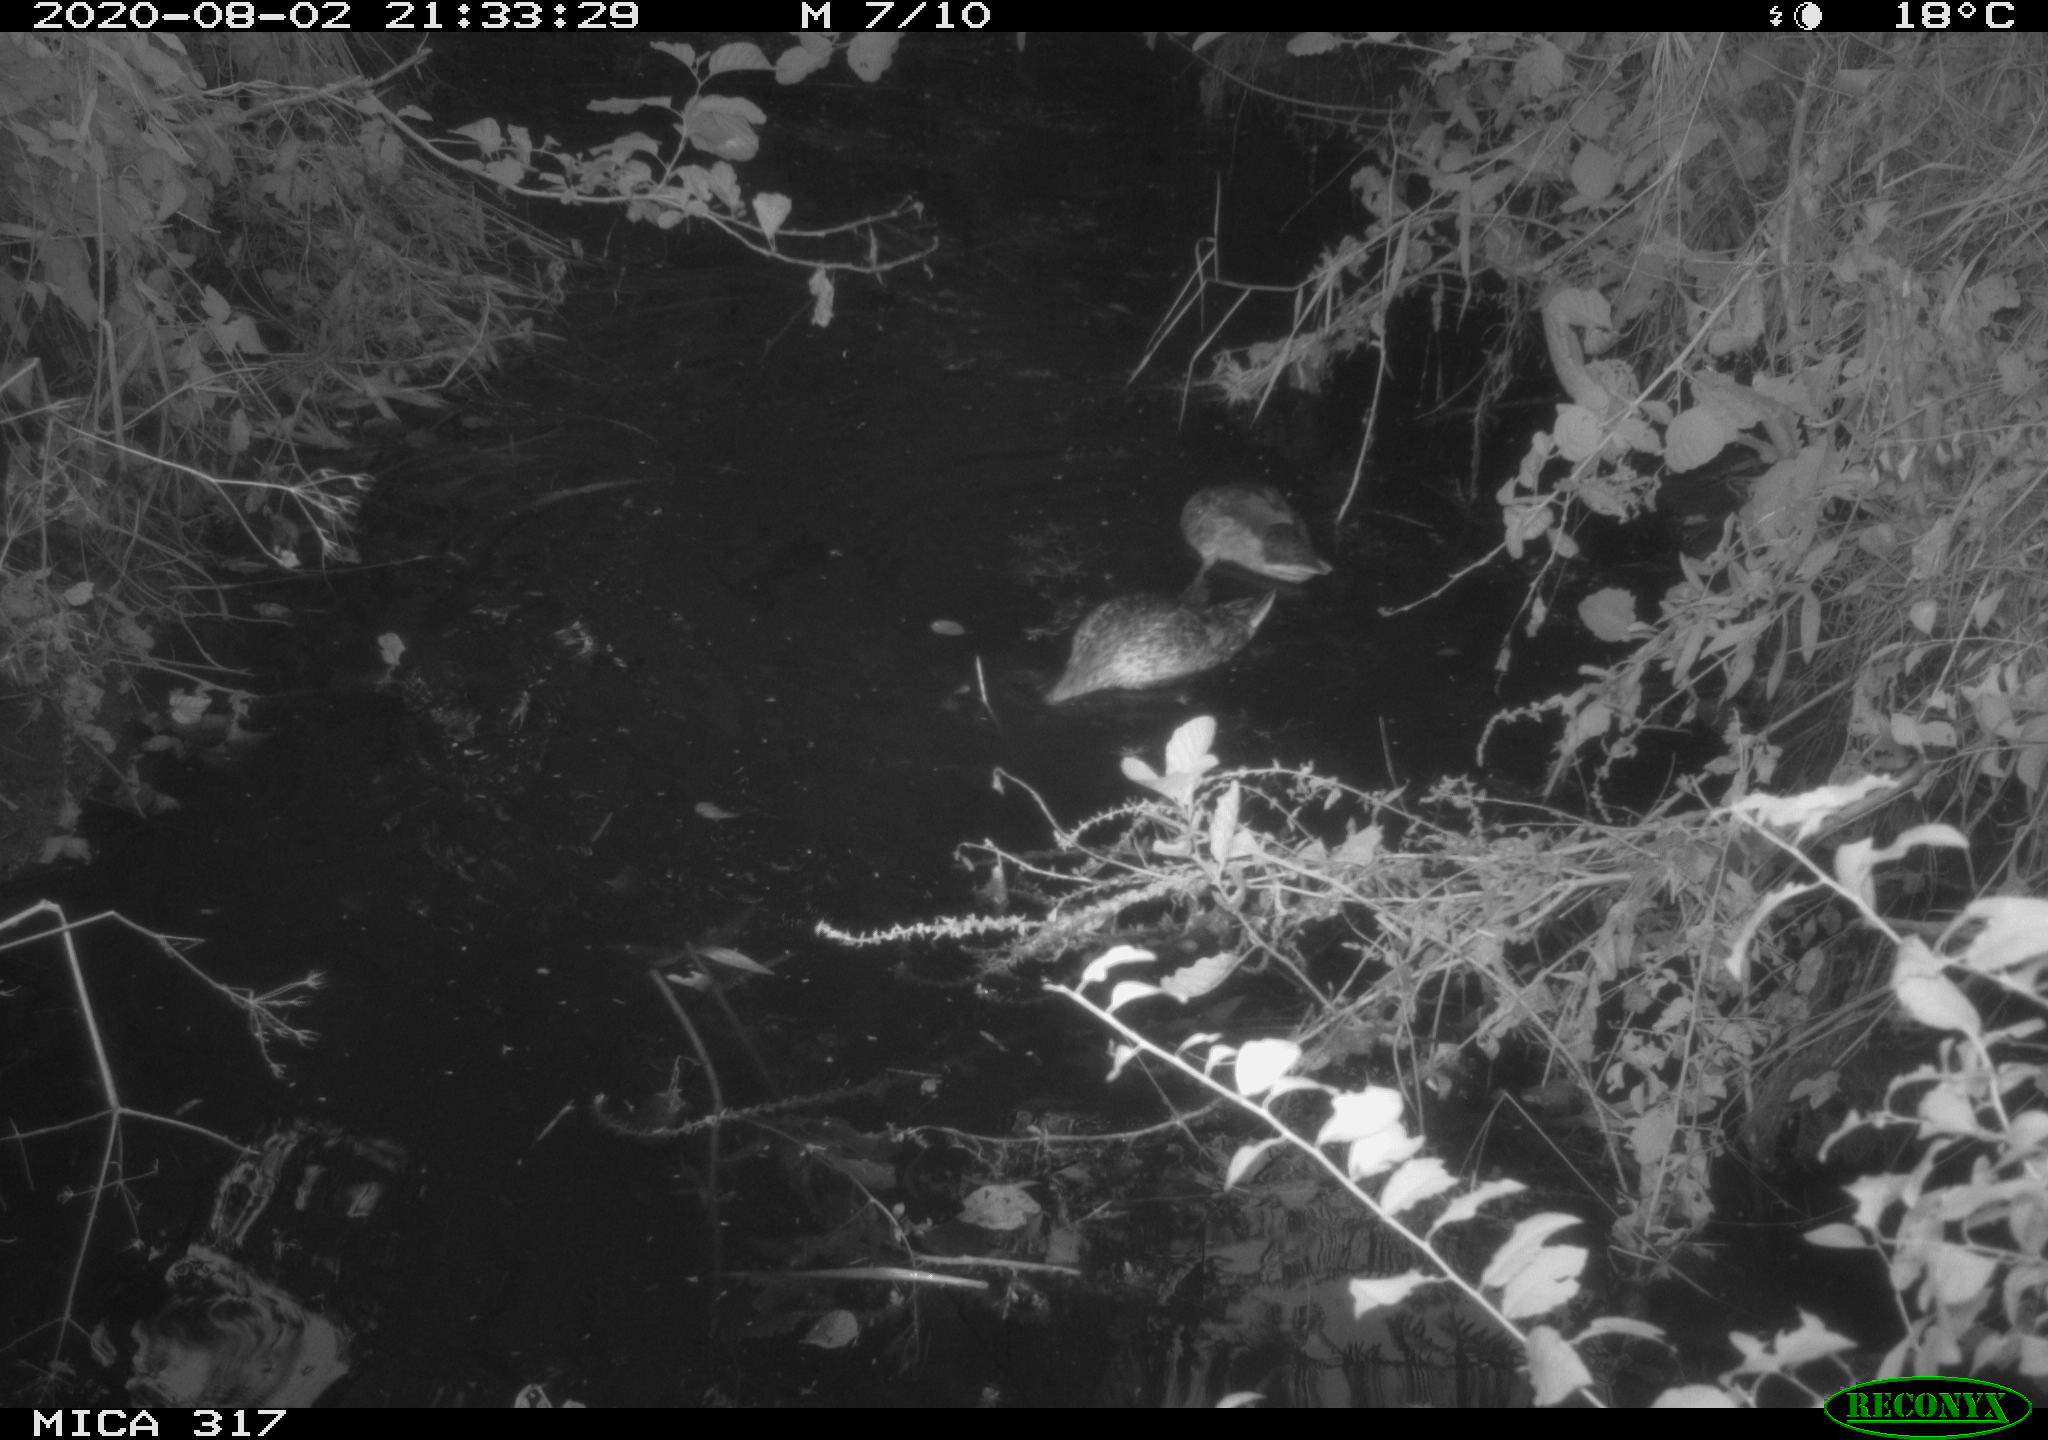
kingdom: Animalia
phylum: Chordata
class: Aves
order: Anseriformes
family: Anatidae
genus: Anas
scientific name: Anas platyrhynchos
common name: Mallard
